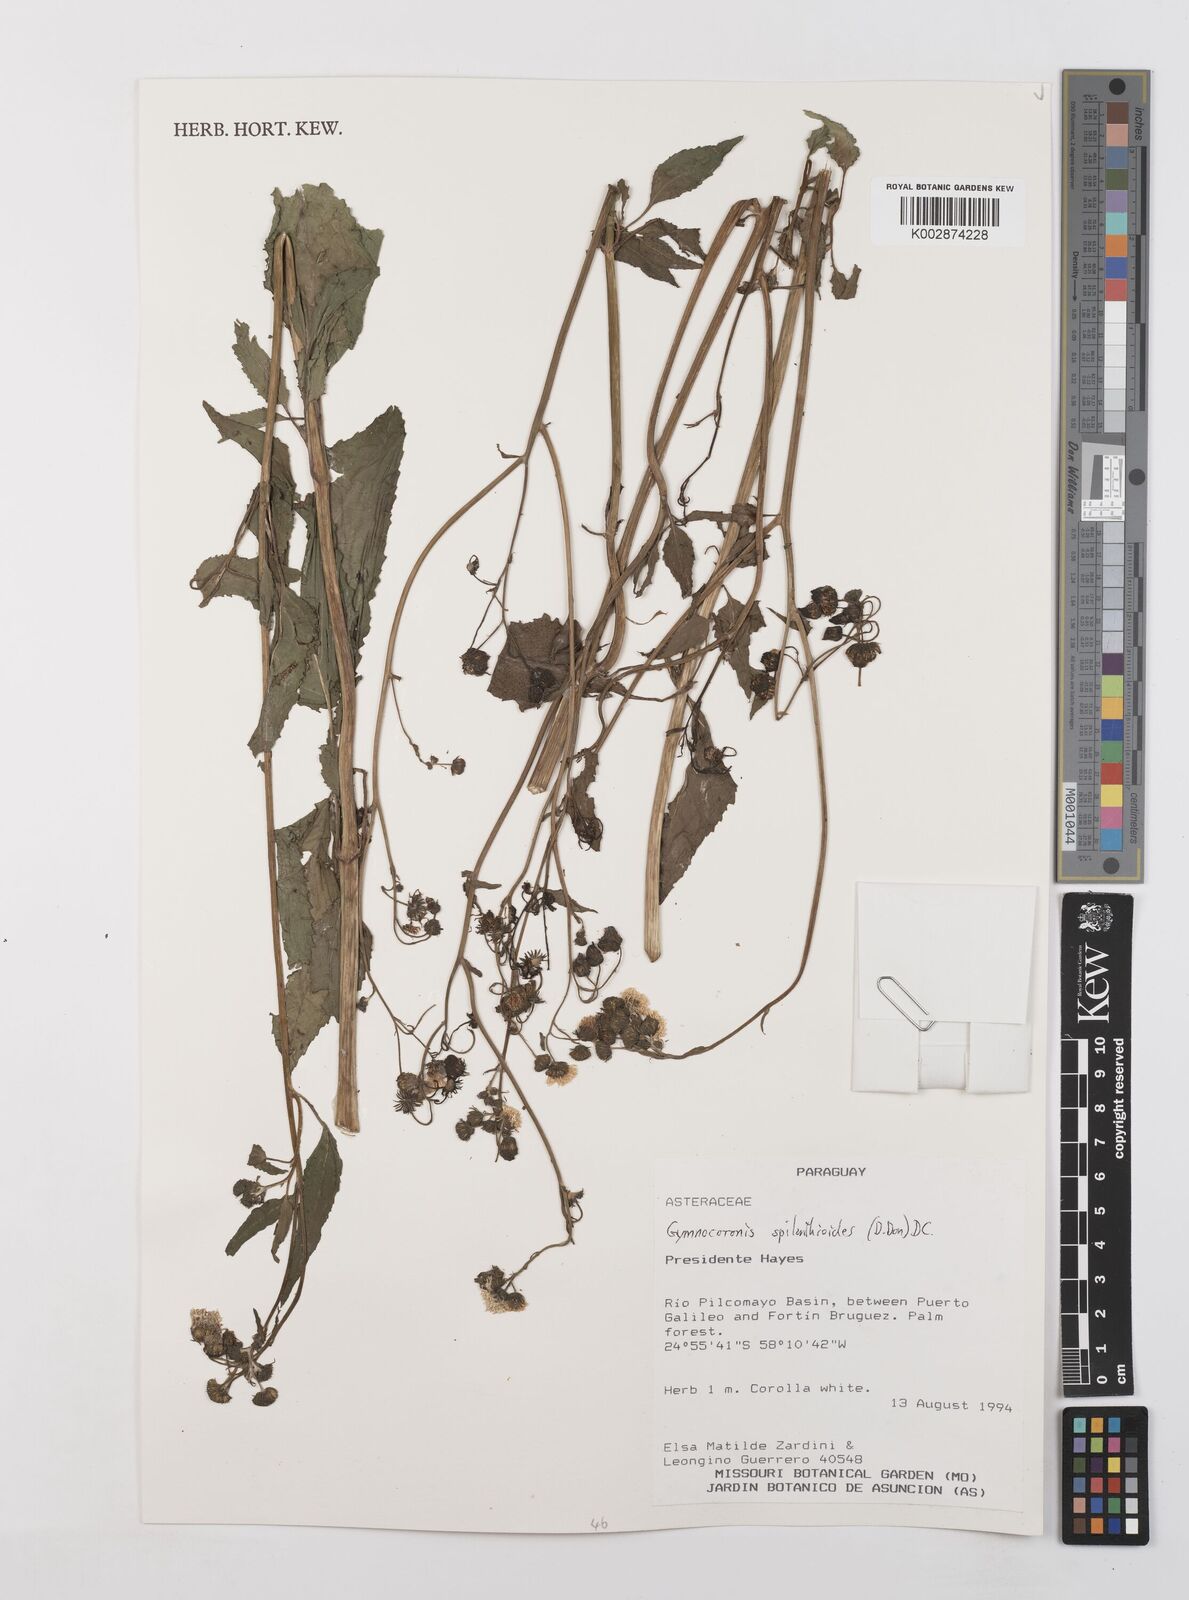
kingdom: Plantae
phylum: Tracheophyta
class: Magnoliopsida
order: Asterales
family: Asteraceae
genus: Gymnocoronis
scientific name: Gymnocoronis spilanthoides
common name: Senegal teaplant
